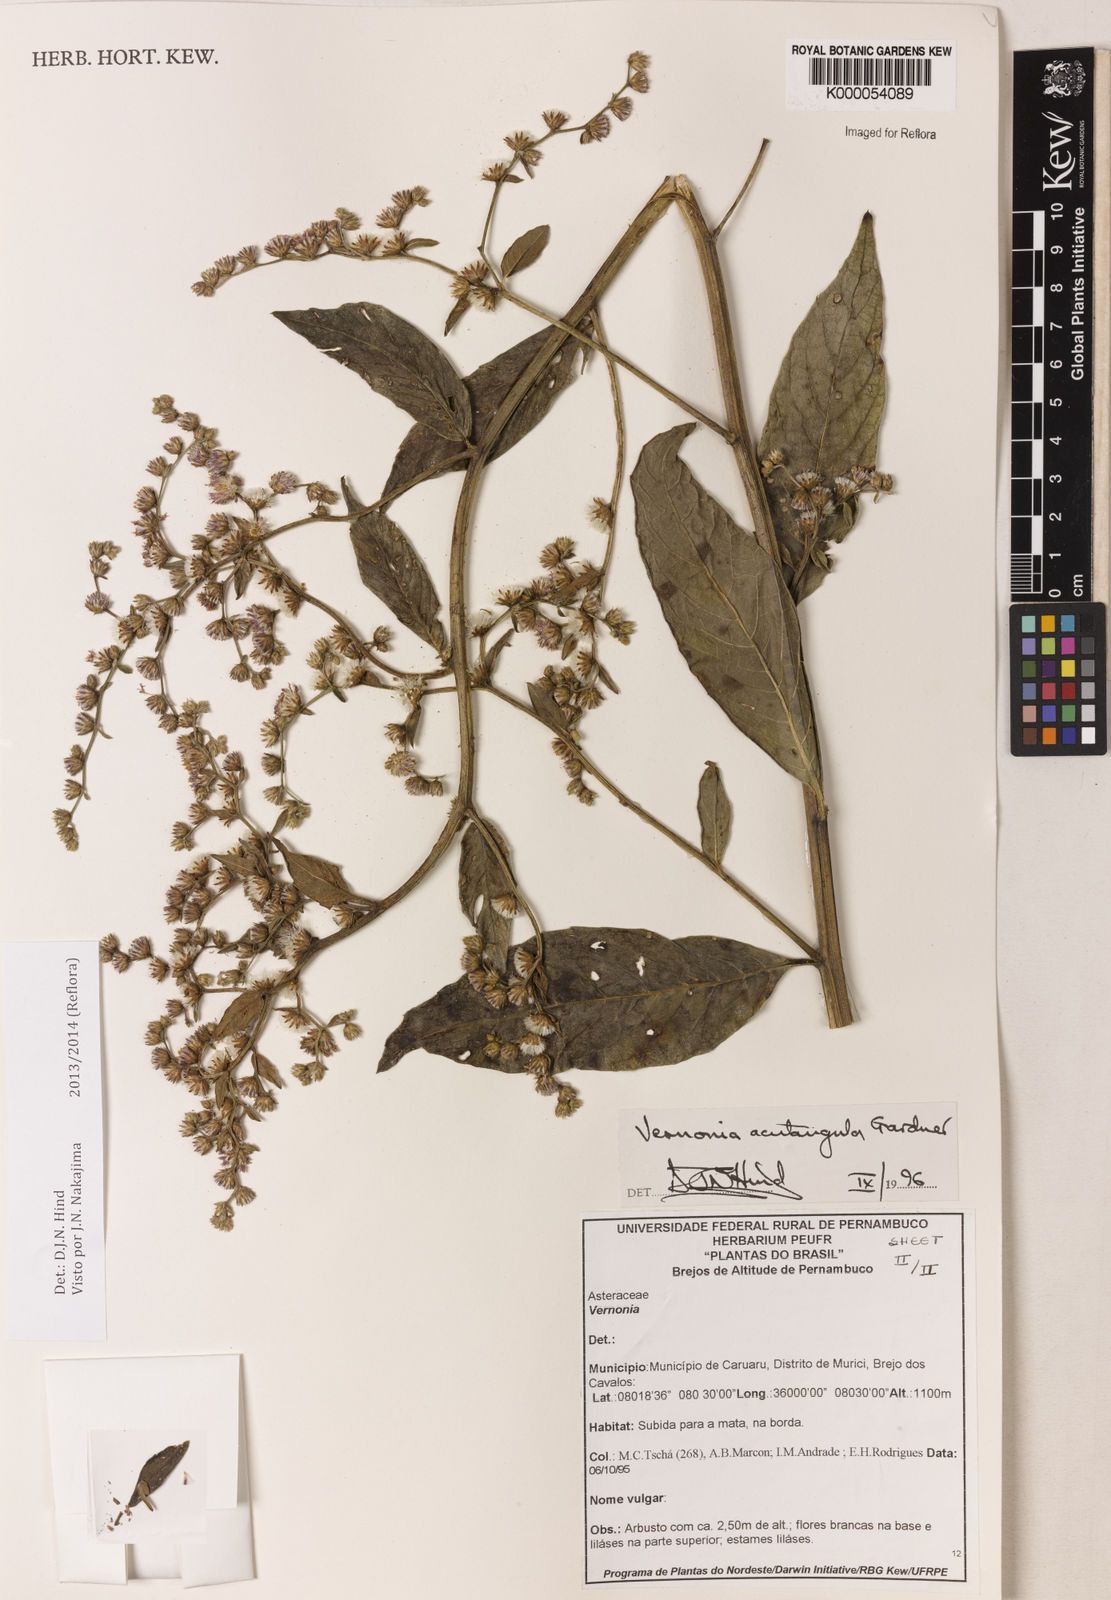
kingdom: Plantae
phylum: Tracheophyta
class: Magnoliopsida
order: Asterales
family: Asteraceae
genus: Lepidaploa
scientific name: Lepidaploa acutangula
